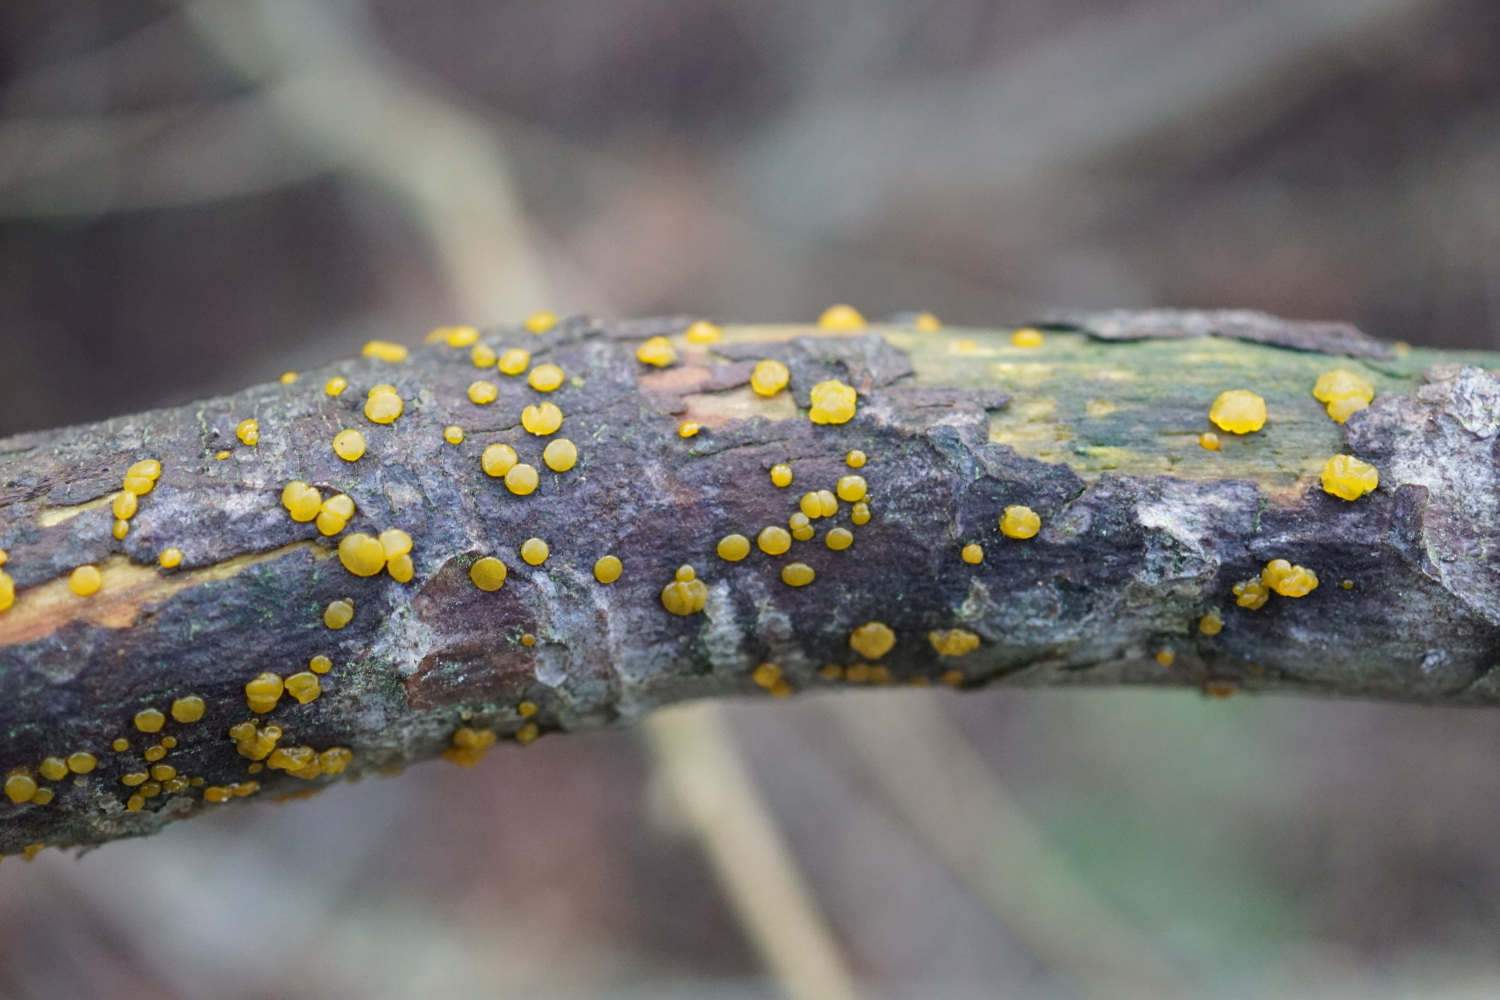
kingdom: Fungi
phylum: Basidiomycota
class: Dacrymycetes
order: Dacrymycetales
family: Dacrymycetaceae
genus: Dacrymyces
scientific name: Dacrymyces
